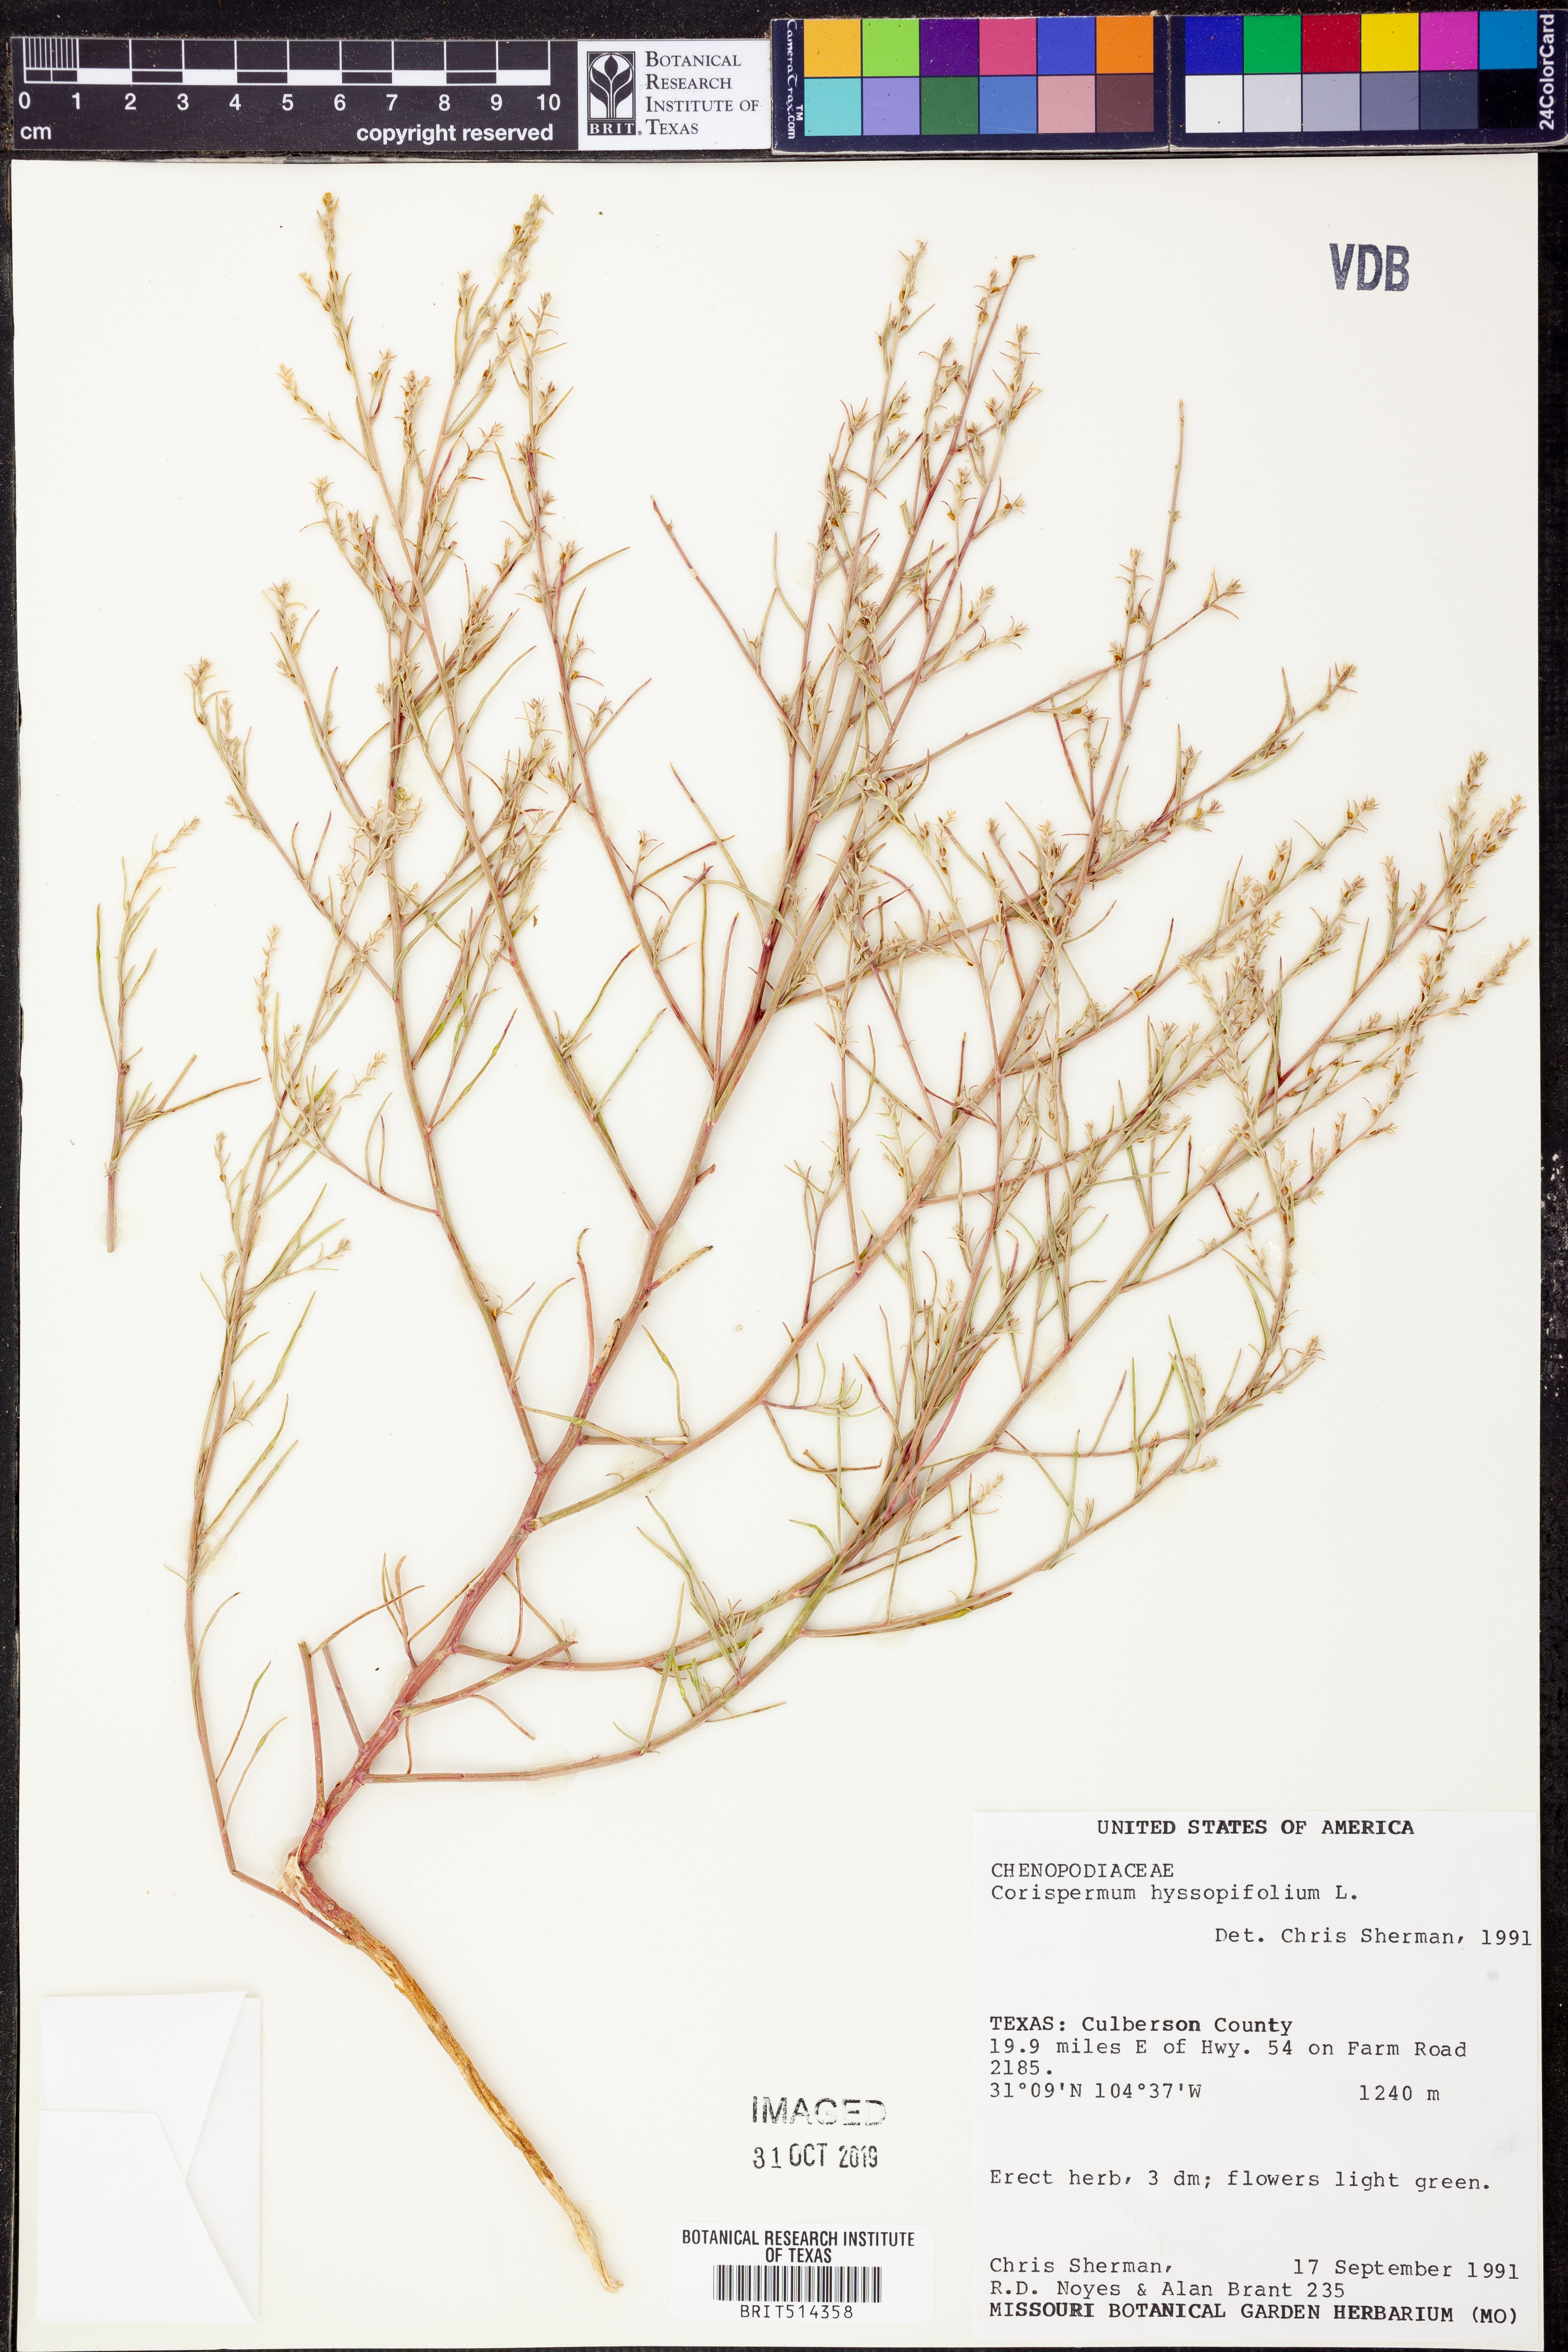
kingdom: Plantae
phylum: Tracheophyta
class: Magnoliopsida
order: Caryophyllales
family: Amaranthaceae
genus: Corispermum
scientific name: Corispermum hyssopifolium
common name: Bugseed
